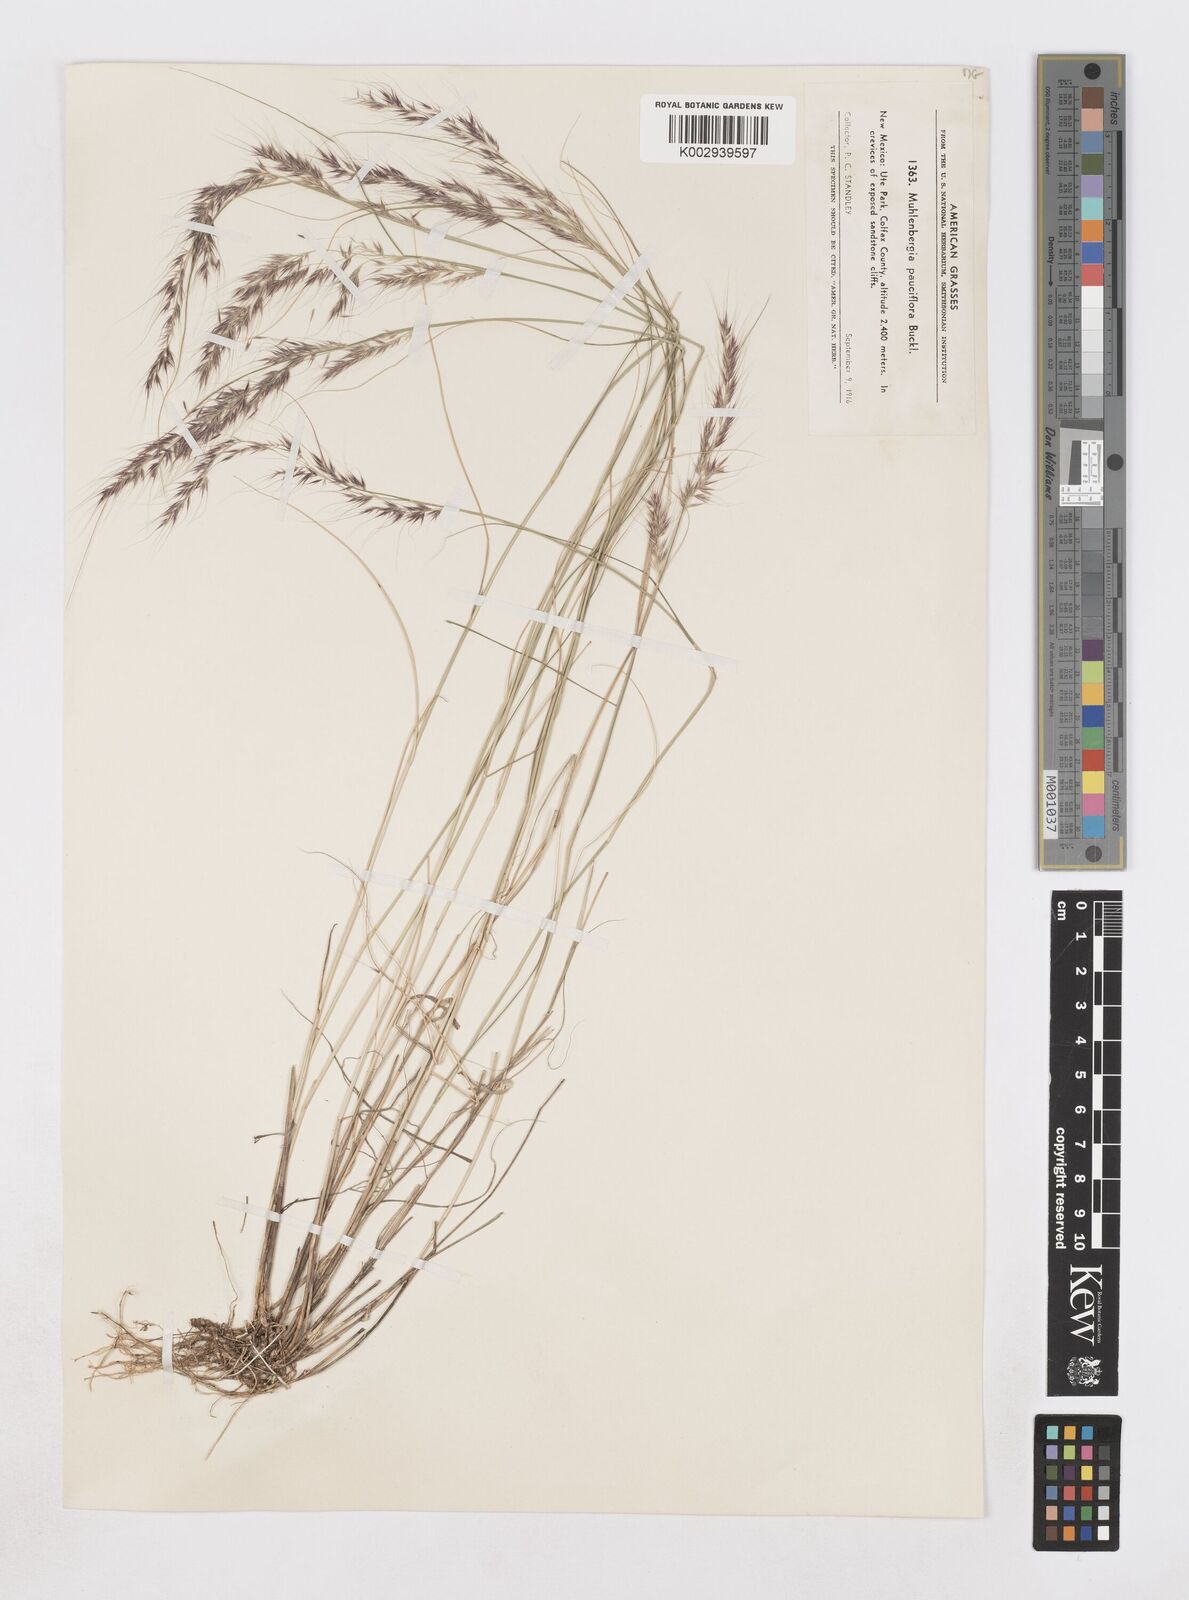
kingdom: Plantae
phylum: Tracheophyta
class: Liliopsida
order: Poales
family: Poaceae
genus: Muhlenbergia
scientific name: Muhlenbergia pauciflora
